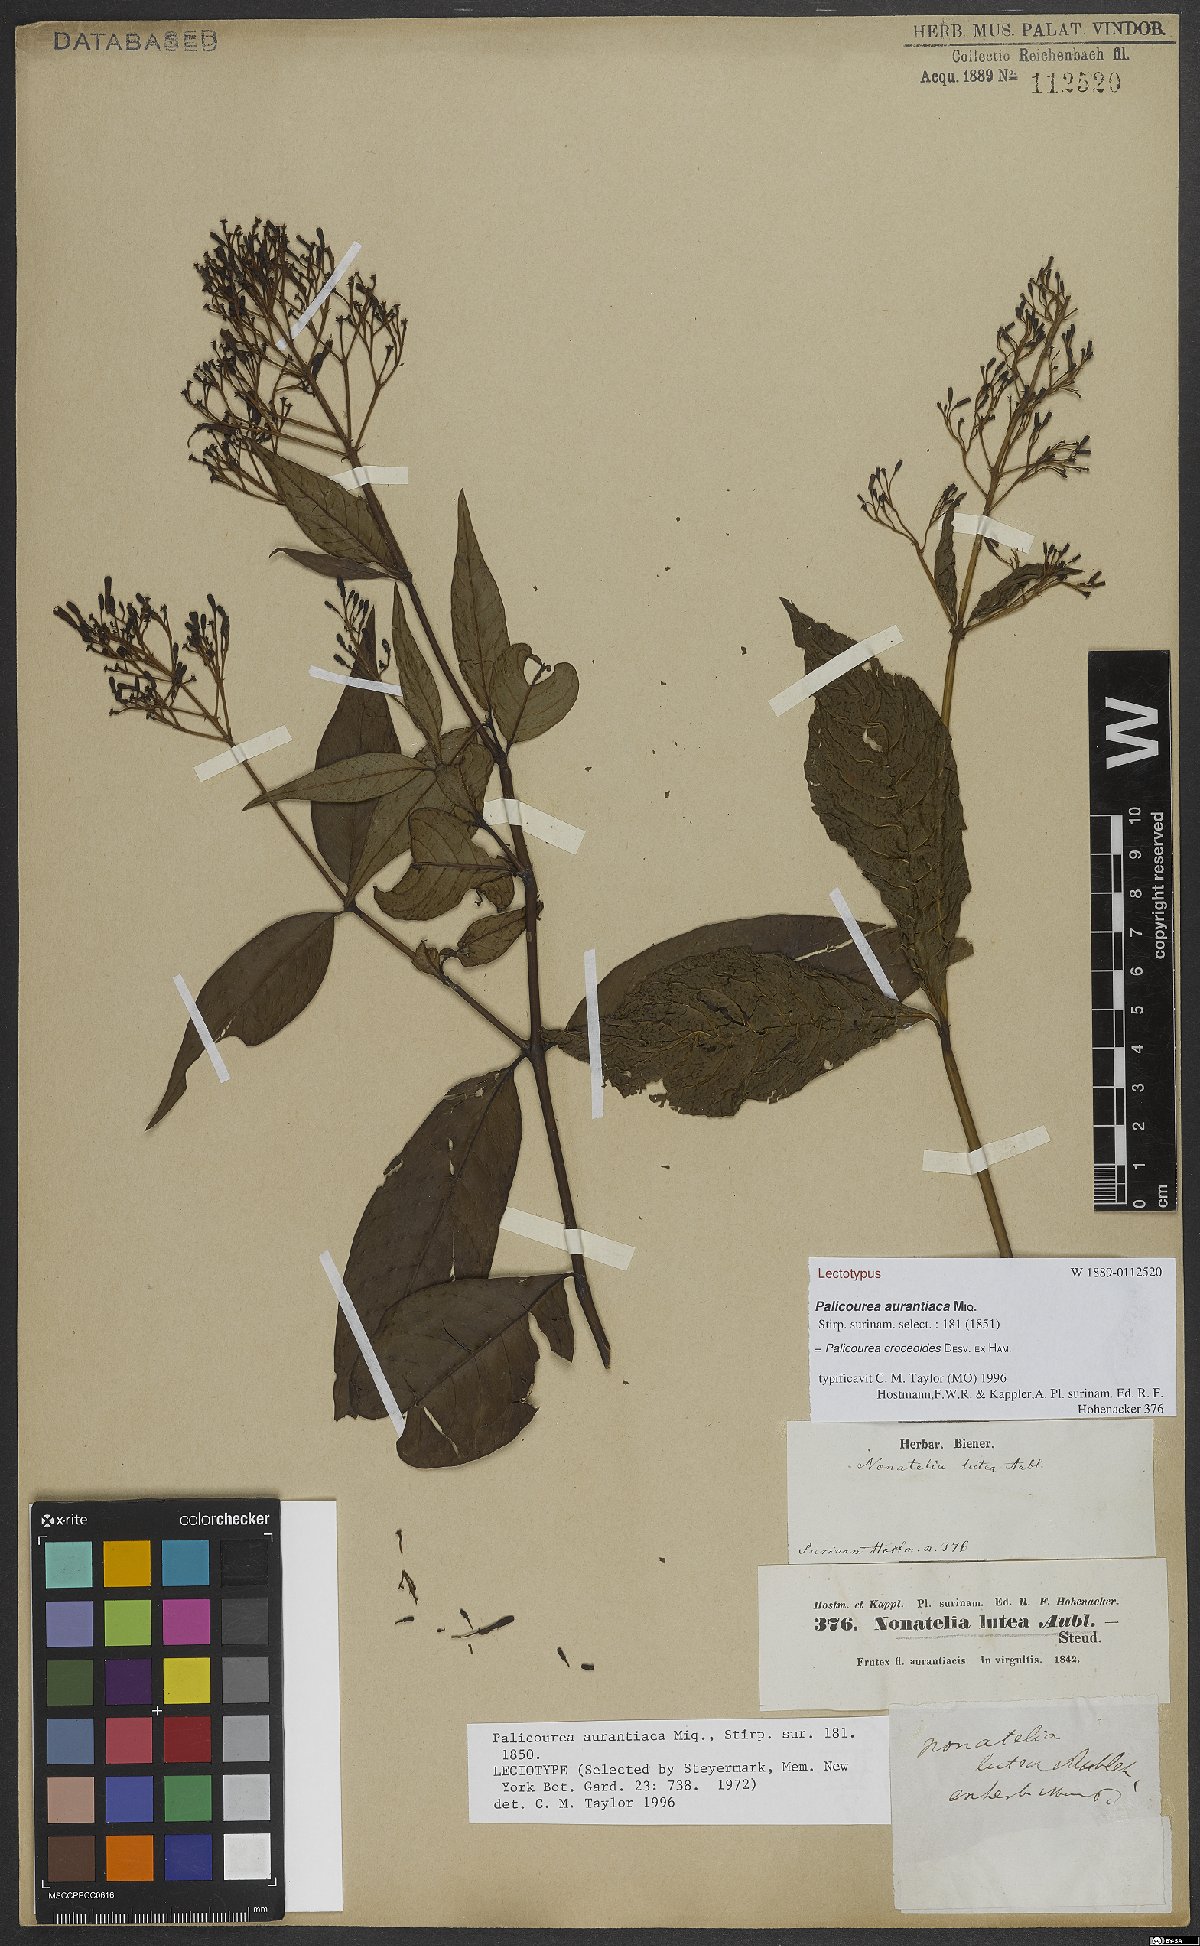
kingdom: Plantae
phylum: Tracheophyta
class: Magnoliopsida
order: Gentianales
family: Rubiaceae
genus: Palicourea
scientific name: Palicourea croceoides
